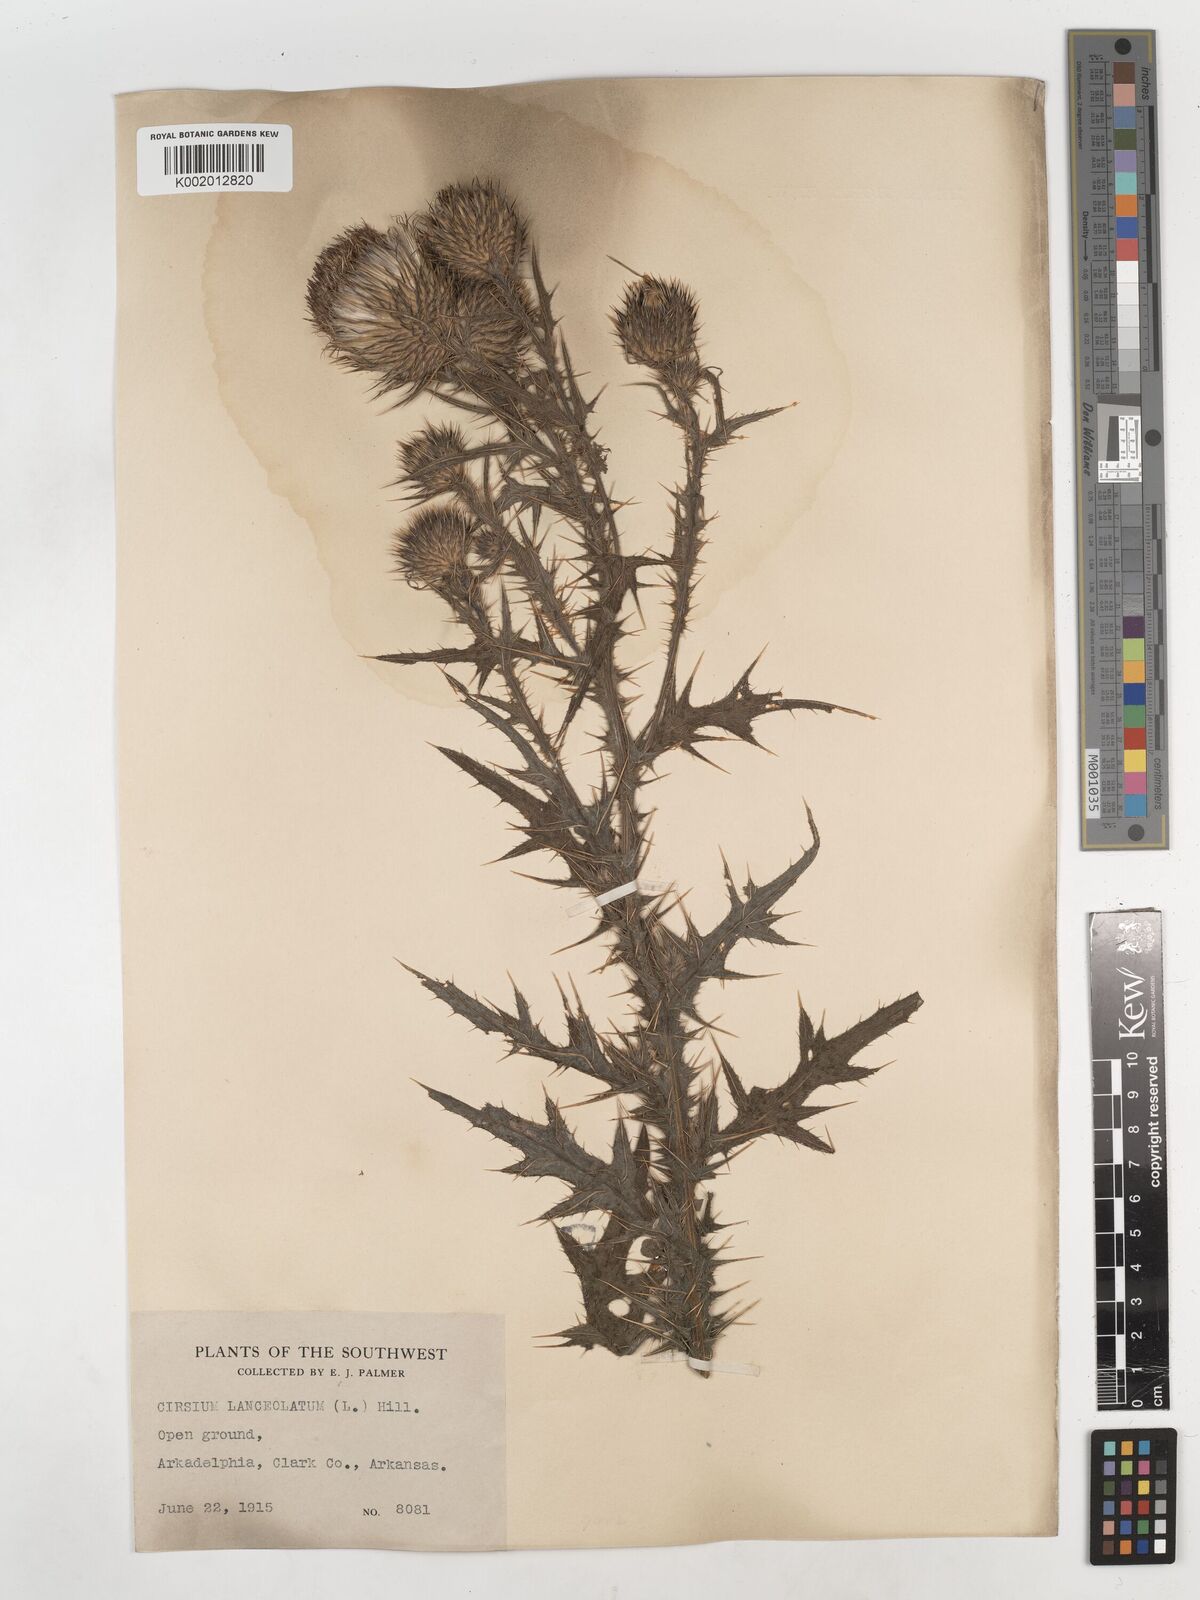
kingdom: Plantae
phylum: Tracheophyta
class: Magnoliopsida
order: Asterales
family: Asteraceae
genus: Cirsium
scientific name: Cirsium
